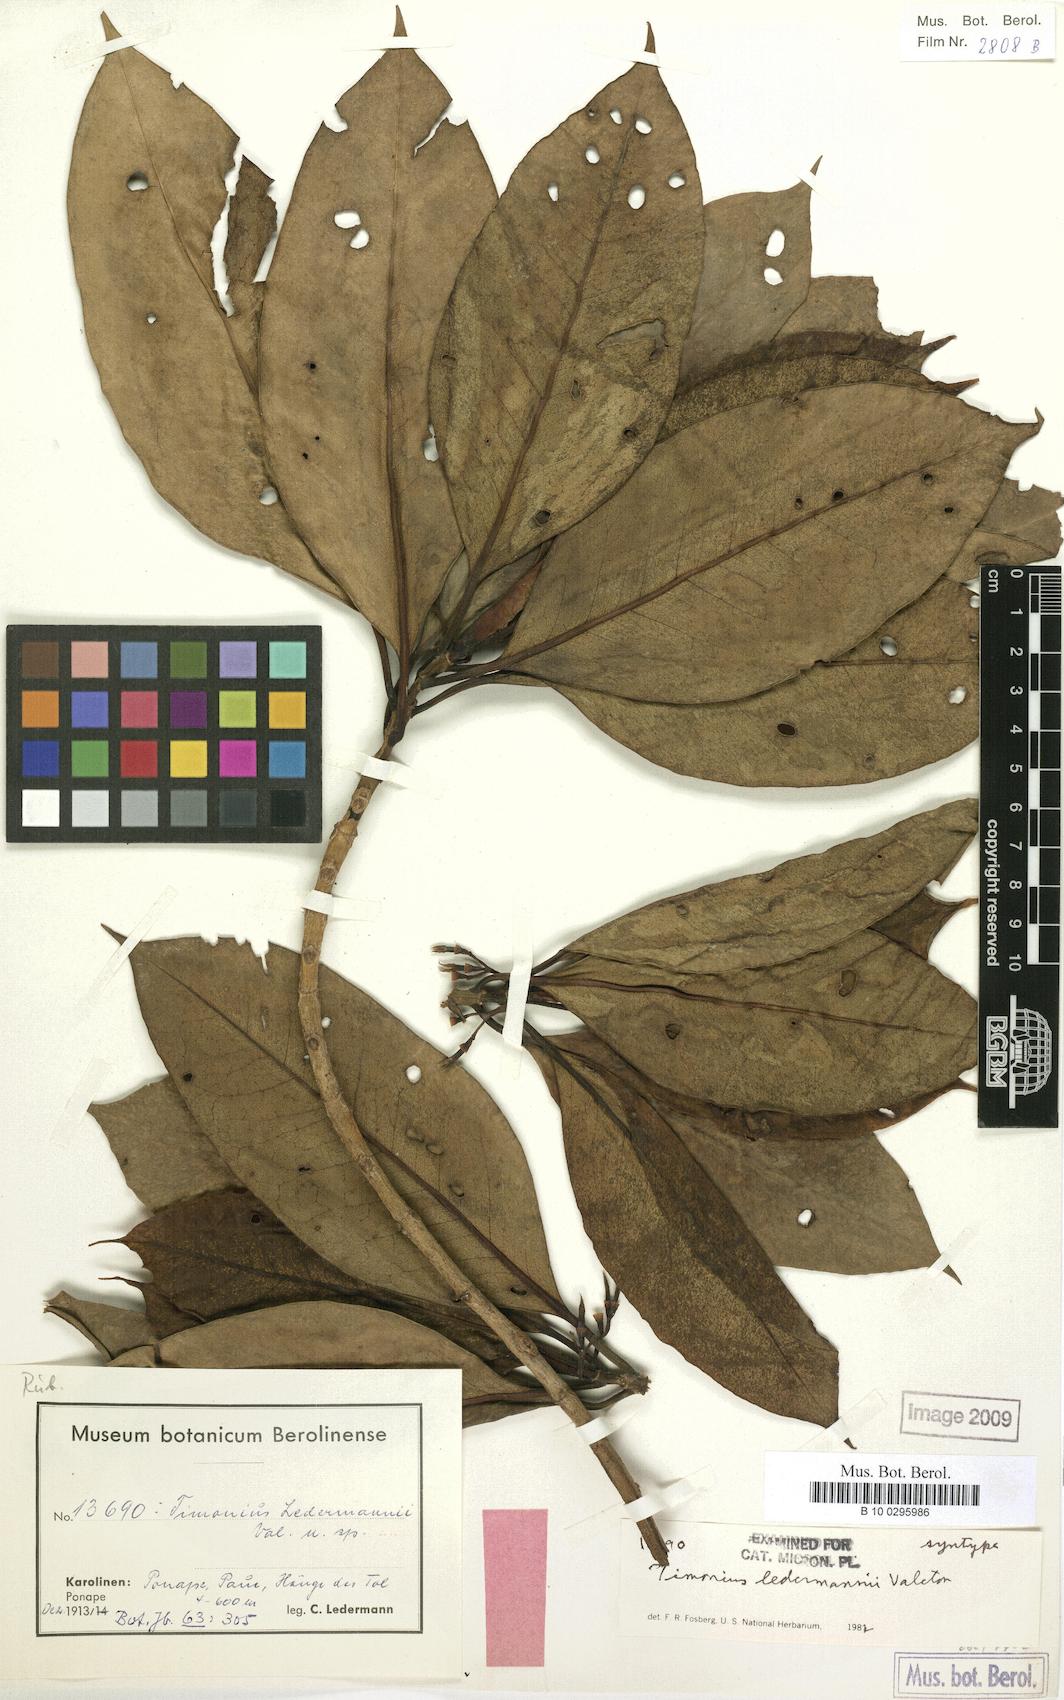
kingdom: Plantae
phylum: Tracheophyta
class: Magnoliopsida
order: Gentianales
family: Rubiaceae
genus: Timonius
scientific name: Timonius ledermannii
